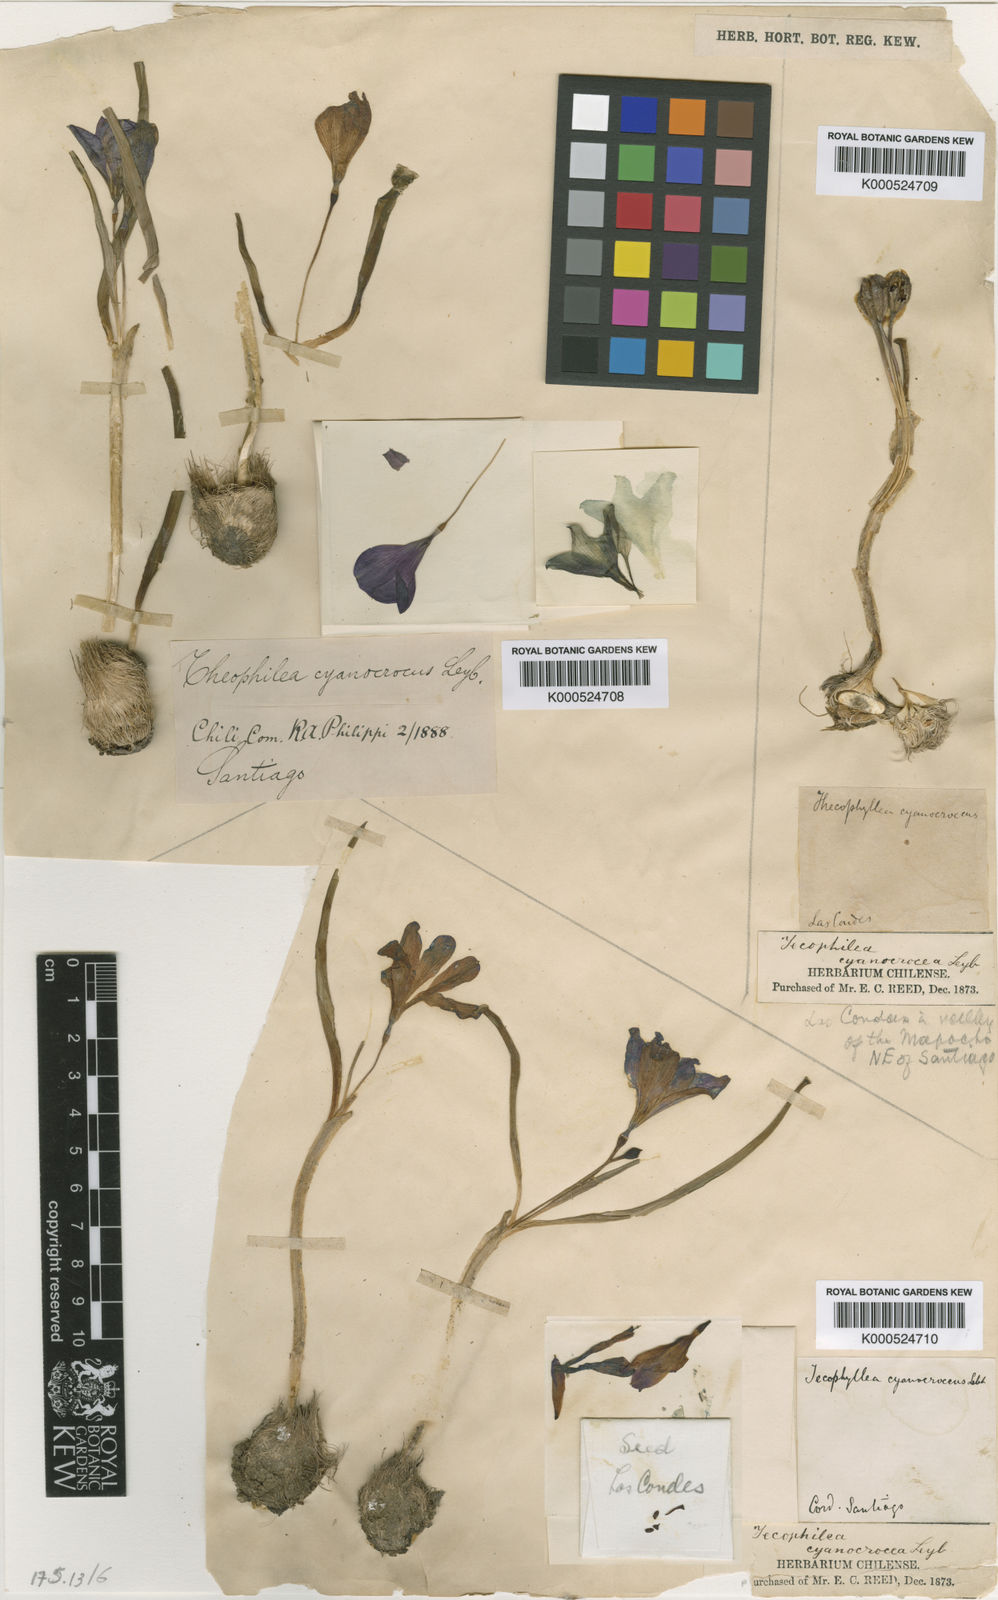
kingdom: Plantae
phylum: Tracheophyta
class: Liliopsida
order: Asparagales
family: Tecophilaeaceae
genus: Tecophilaea
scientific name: Tecophilaea cyanocrocus
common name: Chilean blue-crocus
